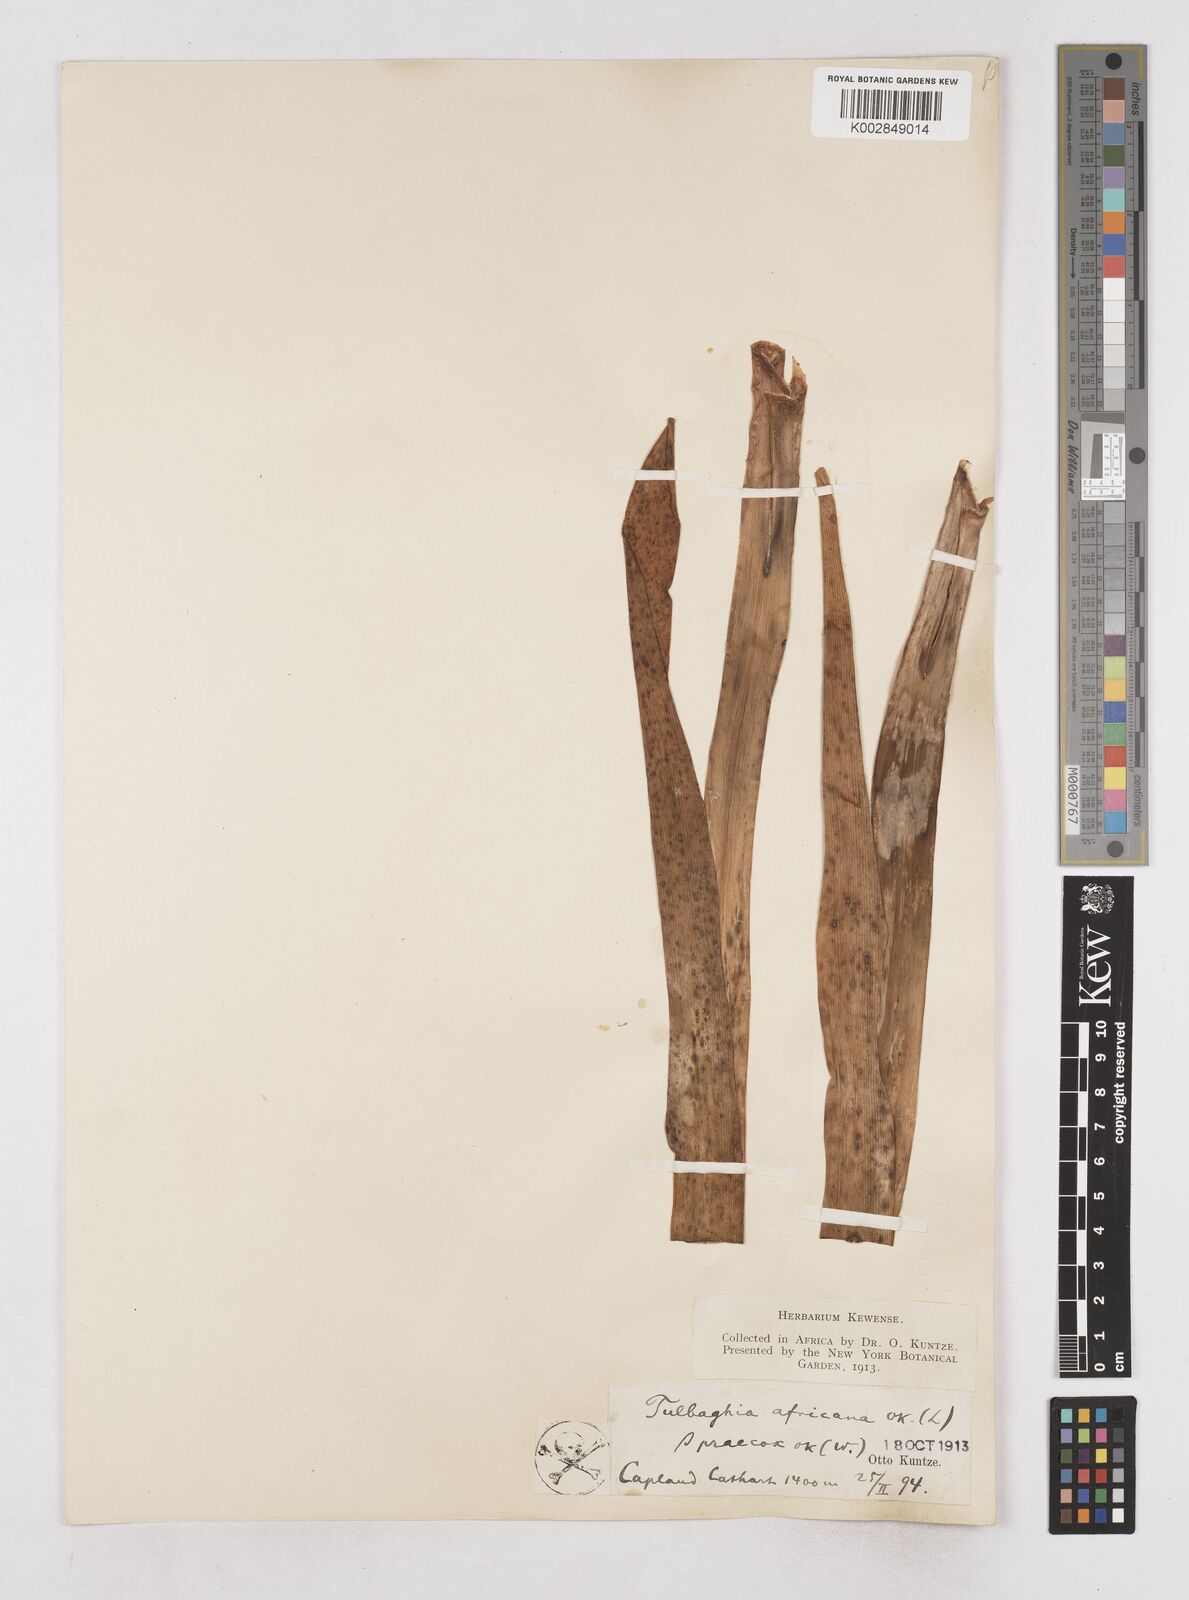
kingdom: Plantae
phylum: Tracheophyta
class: Liliopsida
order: Asparagales
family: Amaryllidaceae
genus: Agapanthus
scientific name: Agapanthus africanus
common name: Lily-of-the-nile
